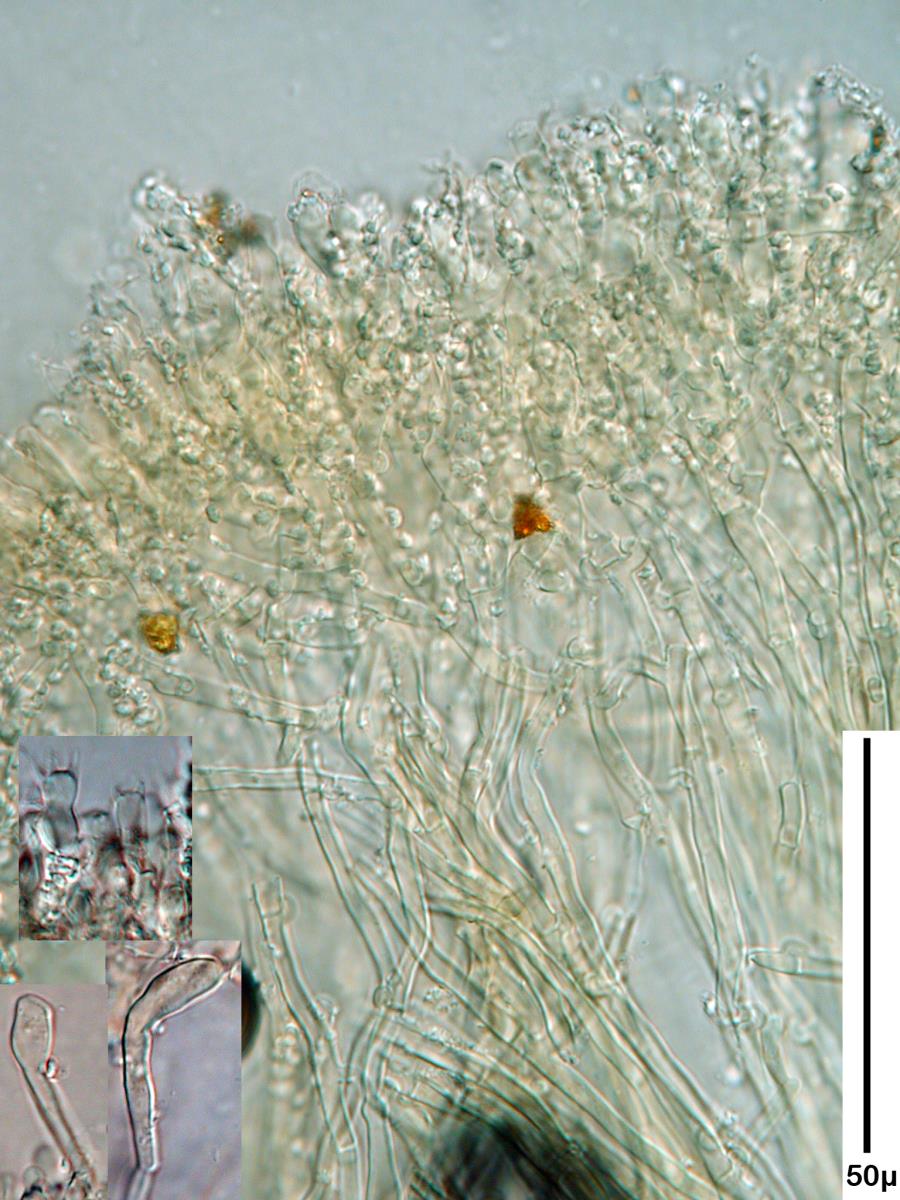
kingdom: Fungi
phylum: Basidiomycota
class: Agaricomycetes
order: Hymenochaetales
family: Schizoporaceae
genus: Lyomyces
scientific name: Lyomyces
